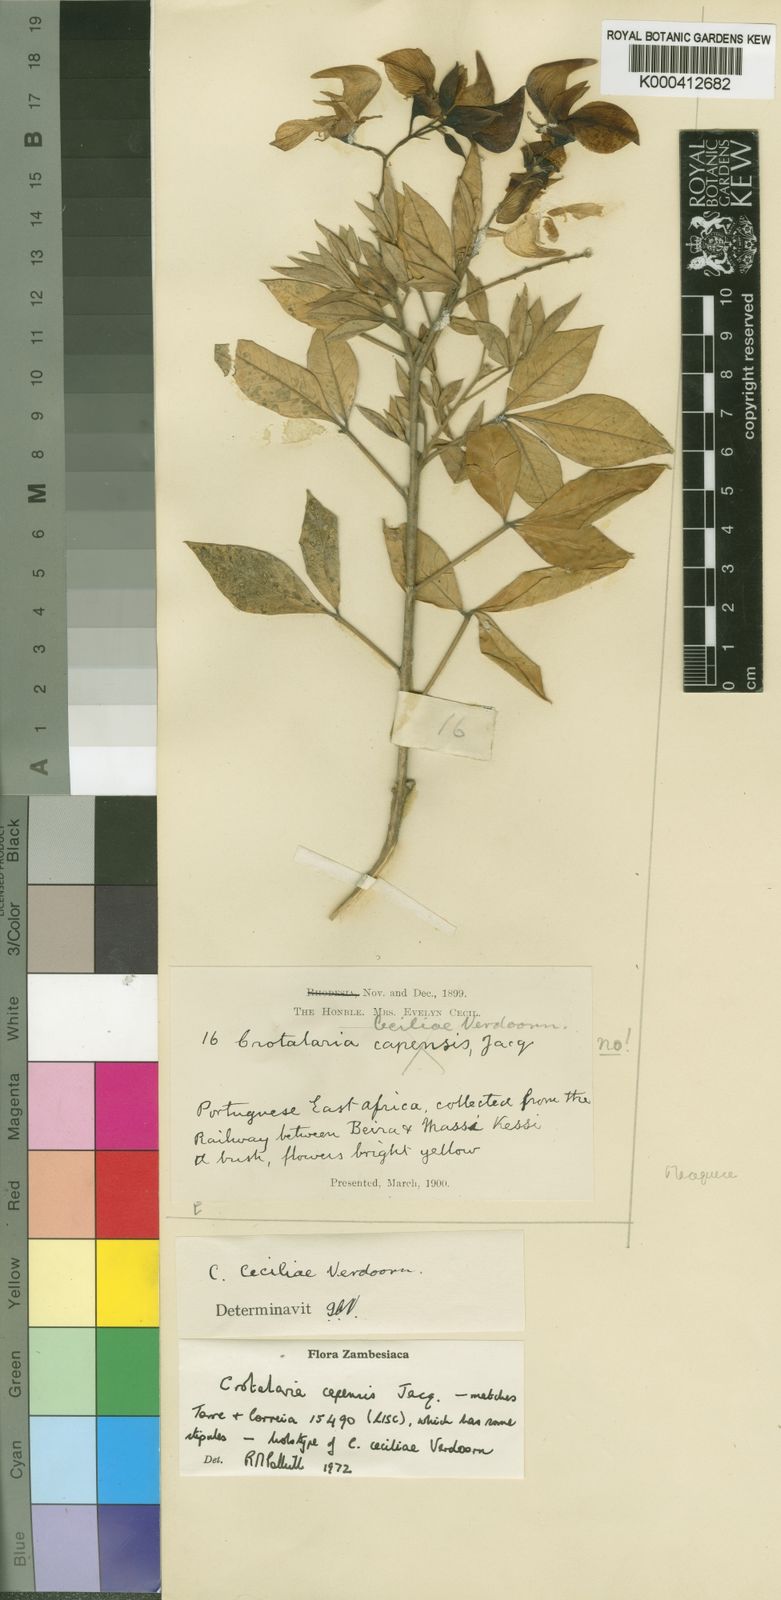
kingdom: Plantae
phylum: Tracheophyta
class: Magnoliopsida
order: Fabales
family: Fabaceae
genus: Crotalaria
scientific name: Crotalaria capensis
